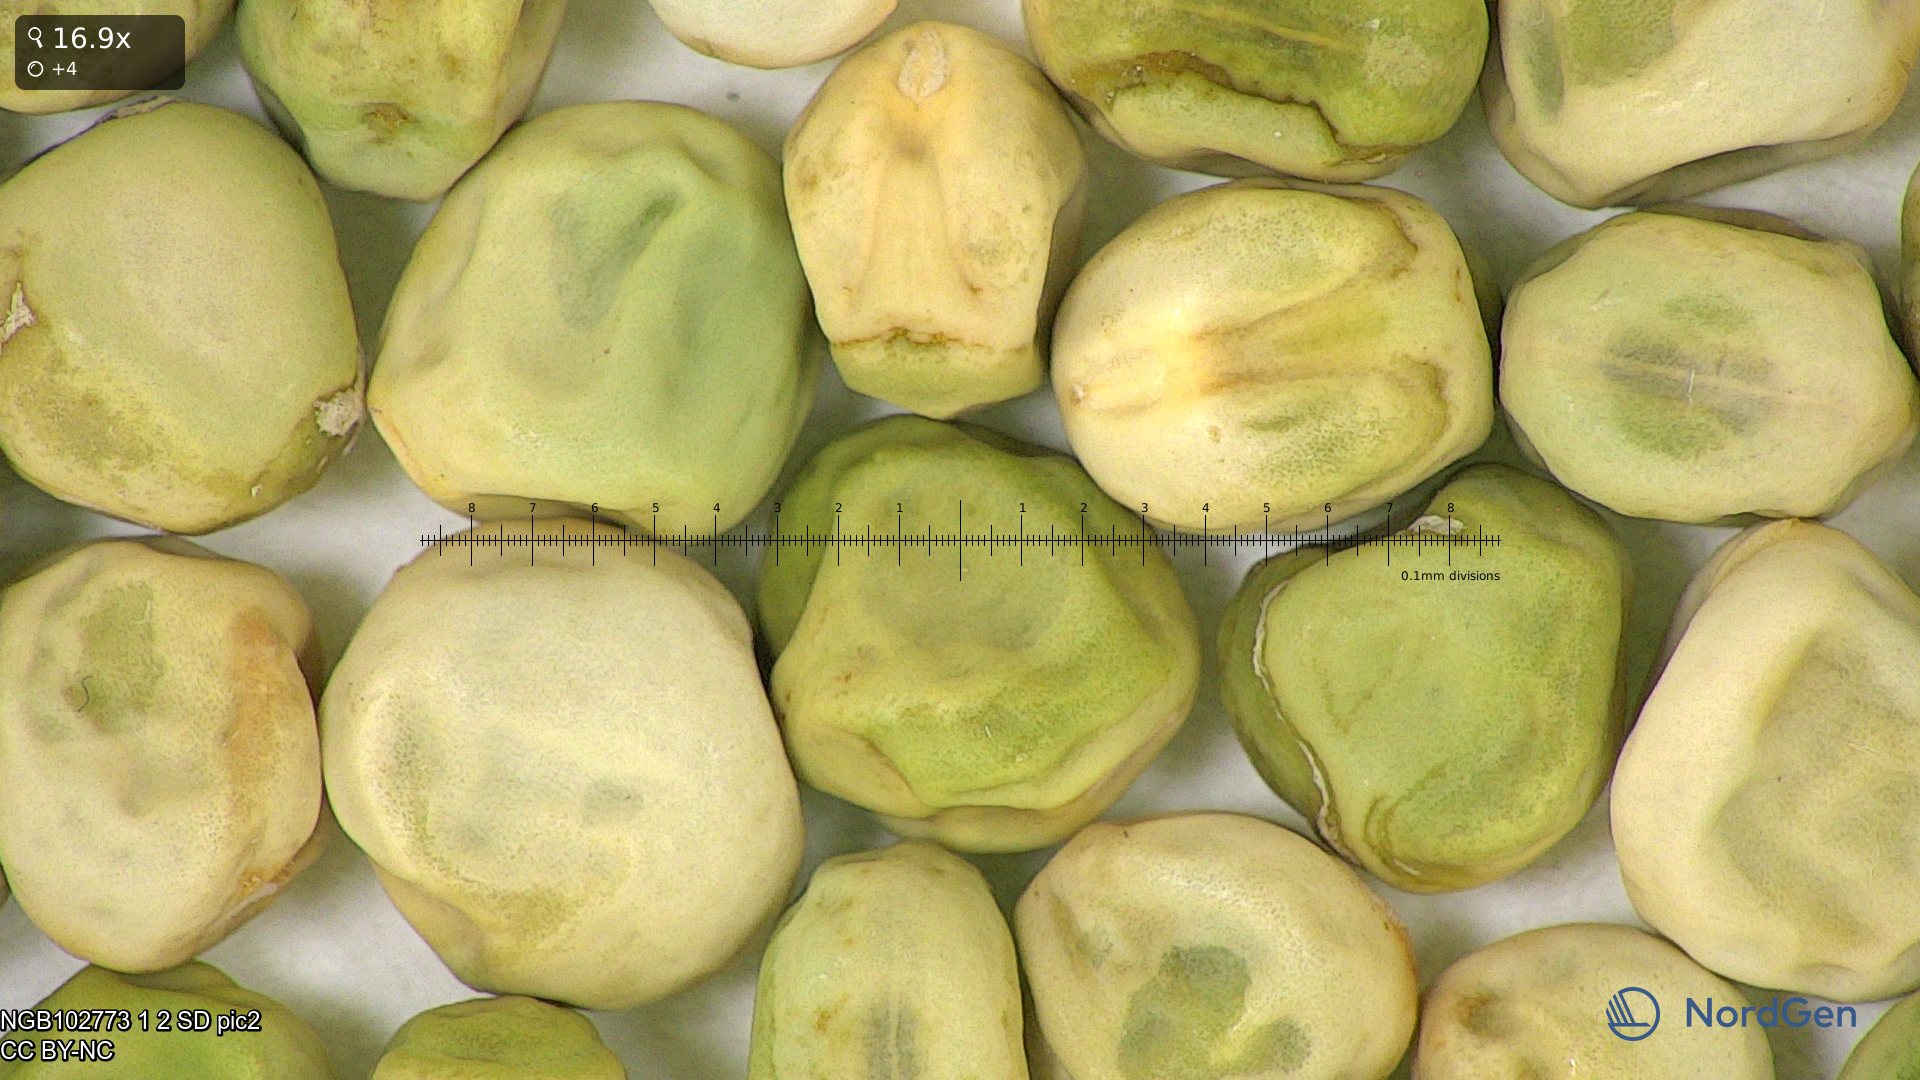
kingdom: Plantae
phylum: Tracheophyta
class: Magnoliopsida
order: Fabales
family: Fabaceae
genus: Lathyrus
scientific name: Lathyrus oleraceus
